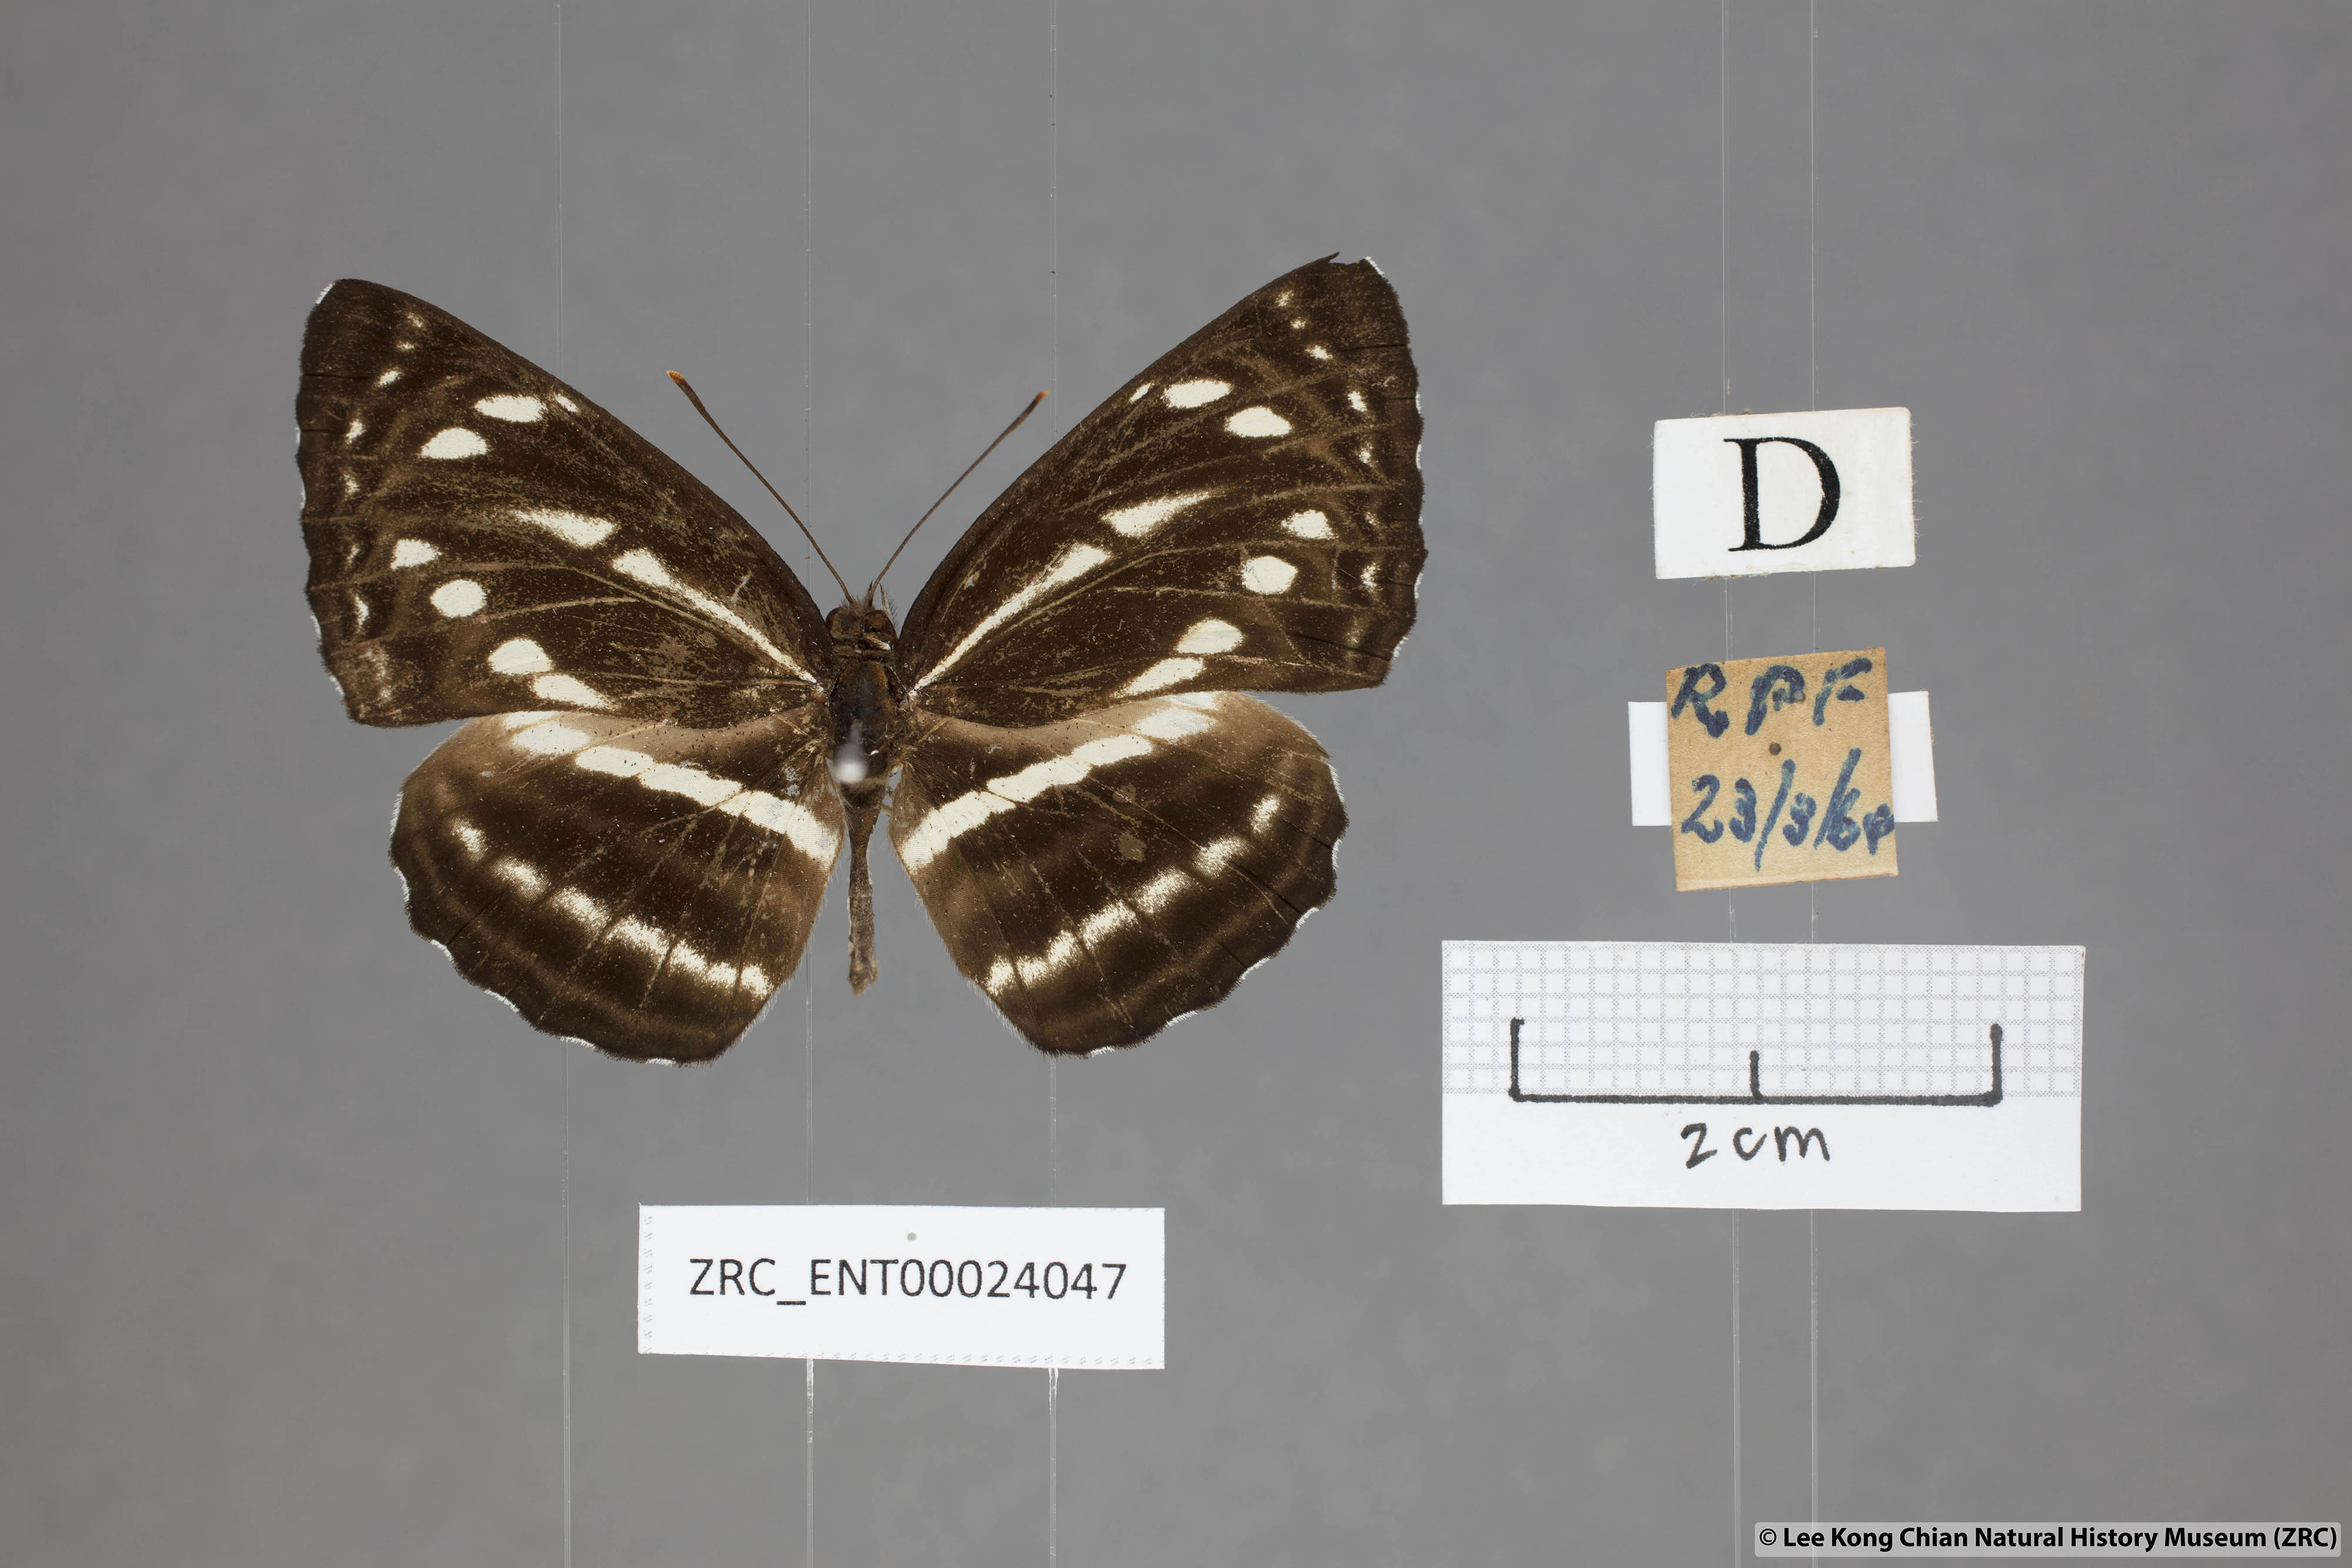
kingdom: Animalia
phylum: Arthropoda
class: Insecta
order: Lepidoptera
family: Nymphalidae
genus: Neptis
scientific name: Neptis nata
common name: Sullied brown sailer
